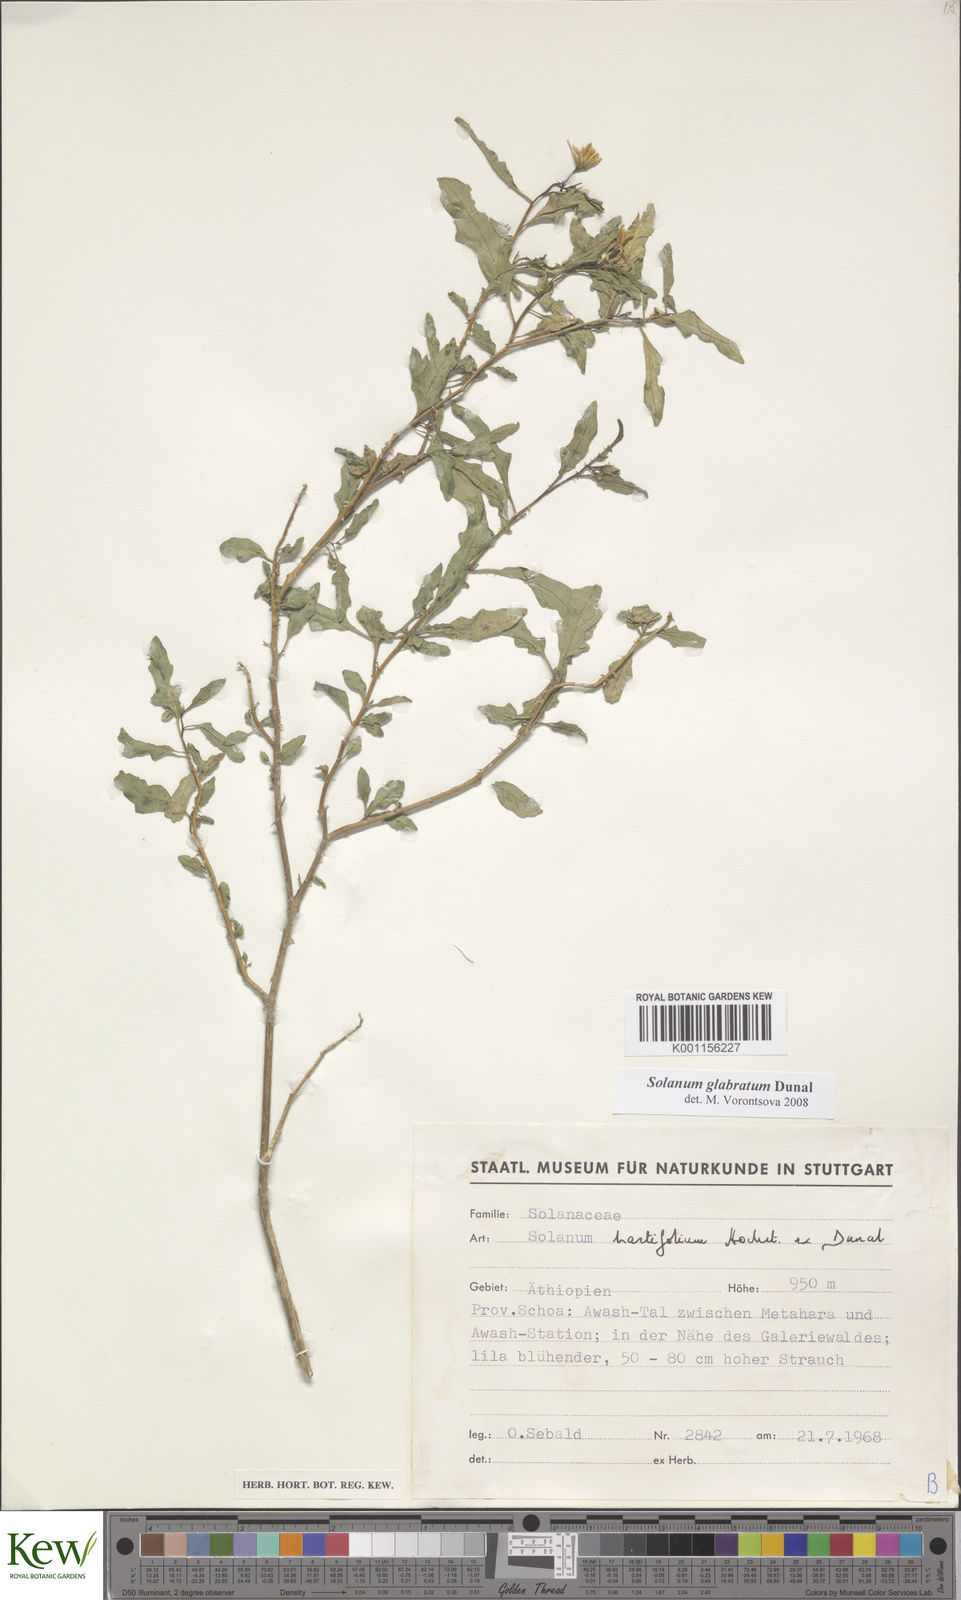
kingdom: Plantae
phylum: Tracheophyta
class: Magnoliopsida
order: Solanales
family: Solanaceae
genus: Solanum
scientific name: Solanum glabratum
